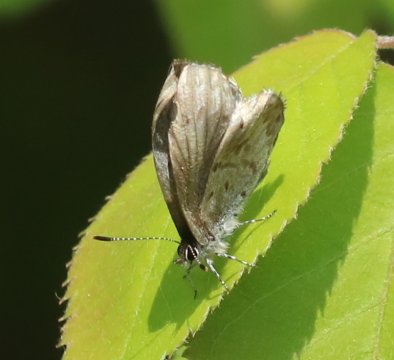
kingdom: Animalia
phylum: Arthropoda
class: Insecta
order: Lepidoptera
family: Lycaenidae
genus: Celastrina
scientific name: Celastrina lucia
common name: Northern Spring Azure
